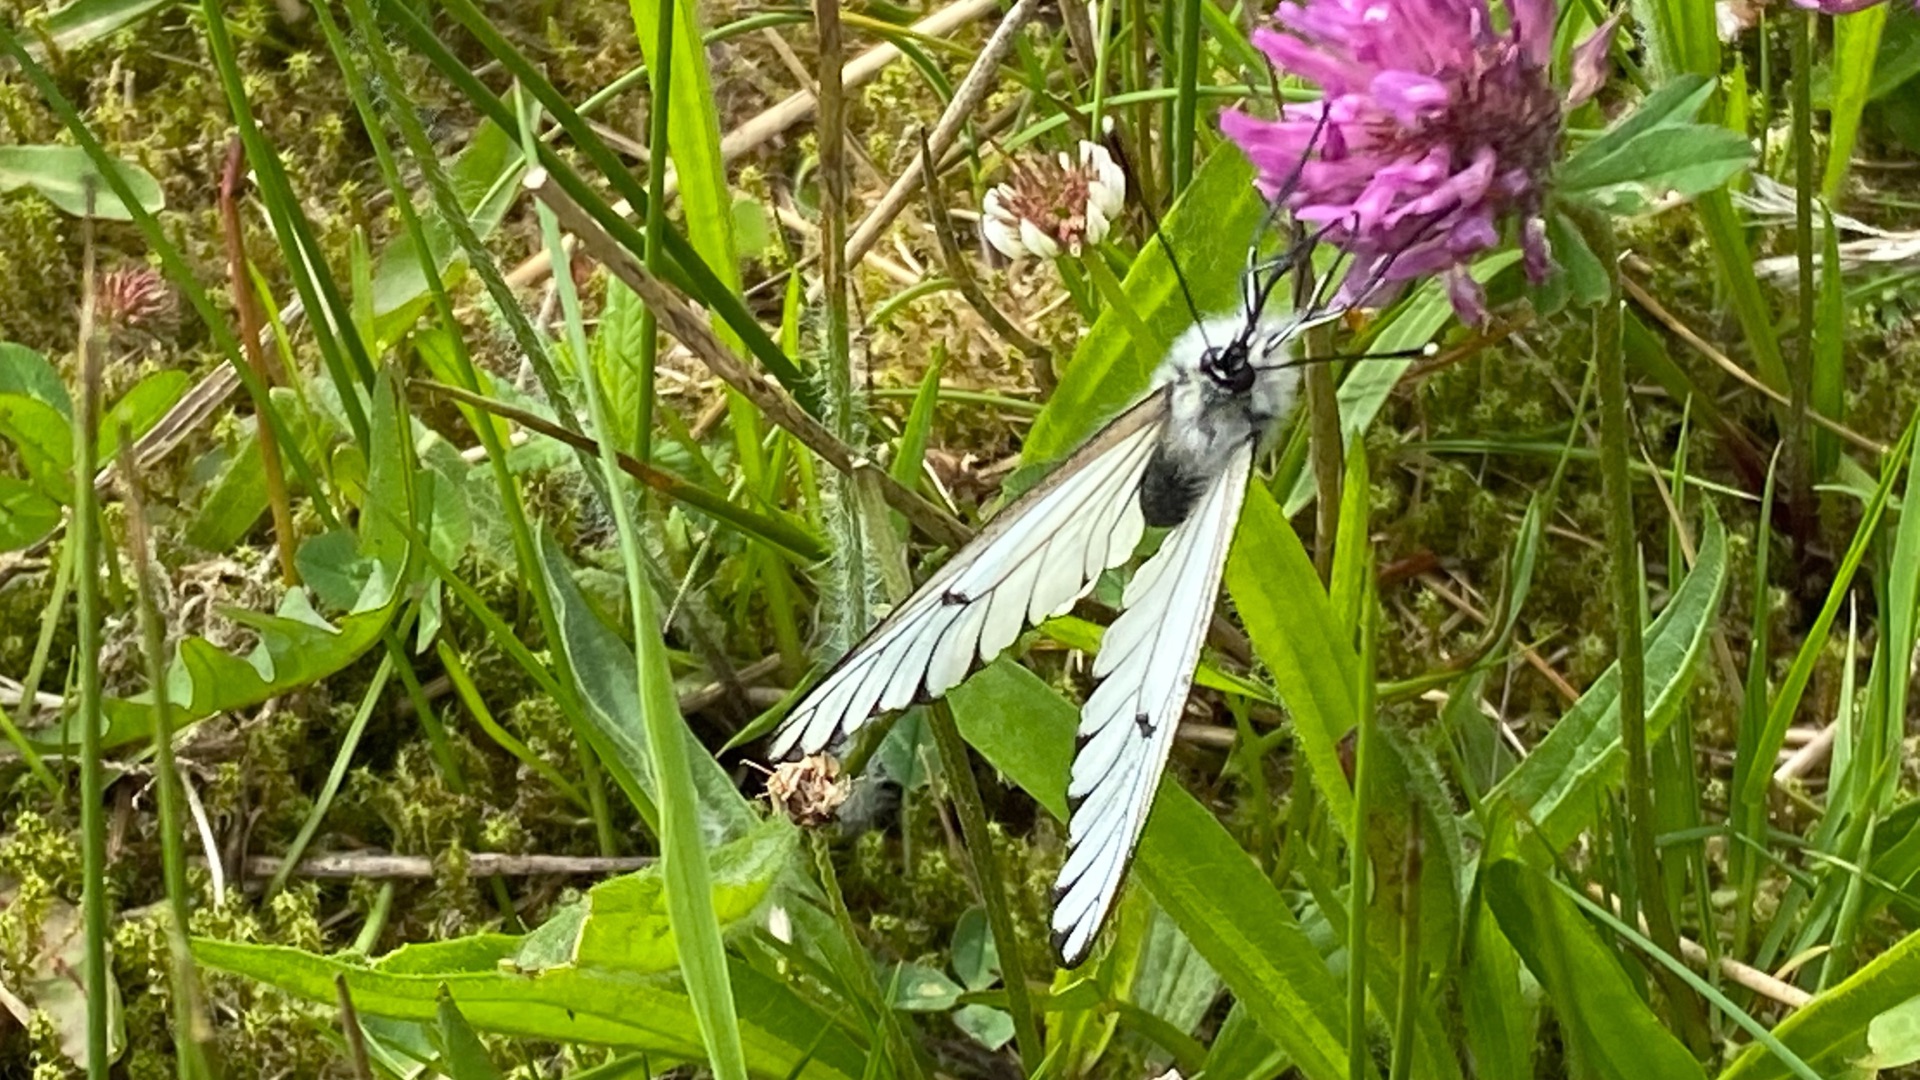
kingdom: Animalia
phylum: Arthropoda
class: Insecta
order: Lepidoptera
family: Pieridae
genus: Aporia
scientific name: Aporia crataegi
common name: Sortåret hvidvinge
